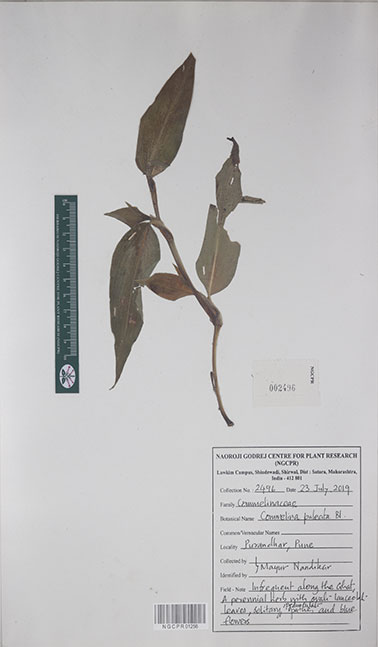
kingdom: Plantae
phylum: Tracheophyta
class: Liliopsida
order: Commelinales
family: Commelinaceae
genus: Commelina
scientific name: Commelina paleata
